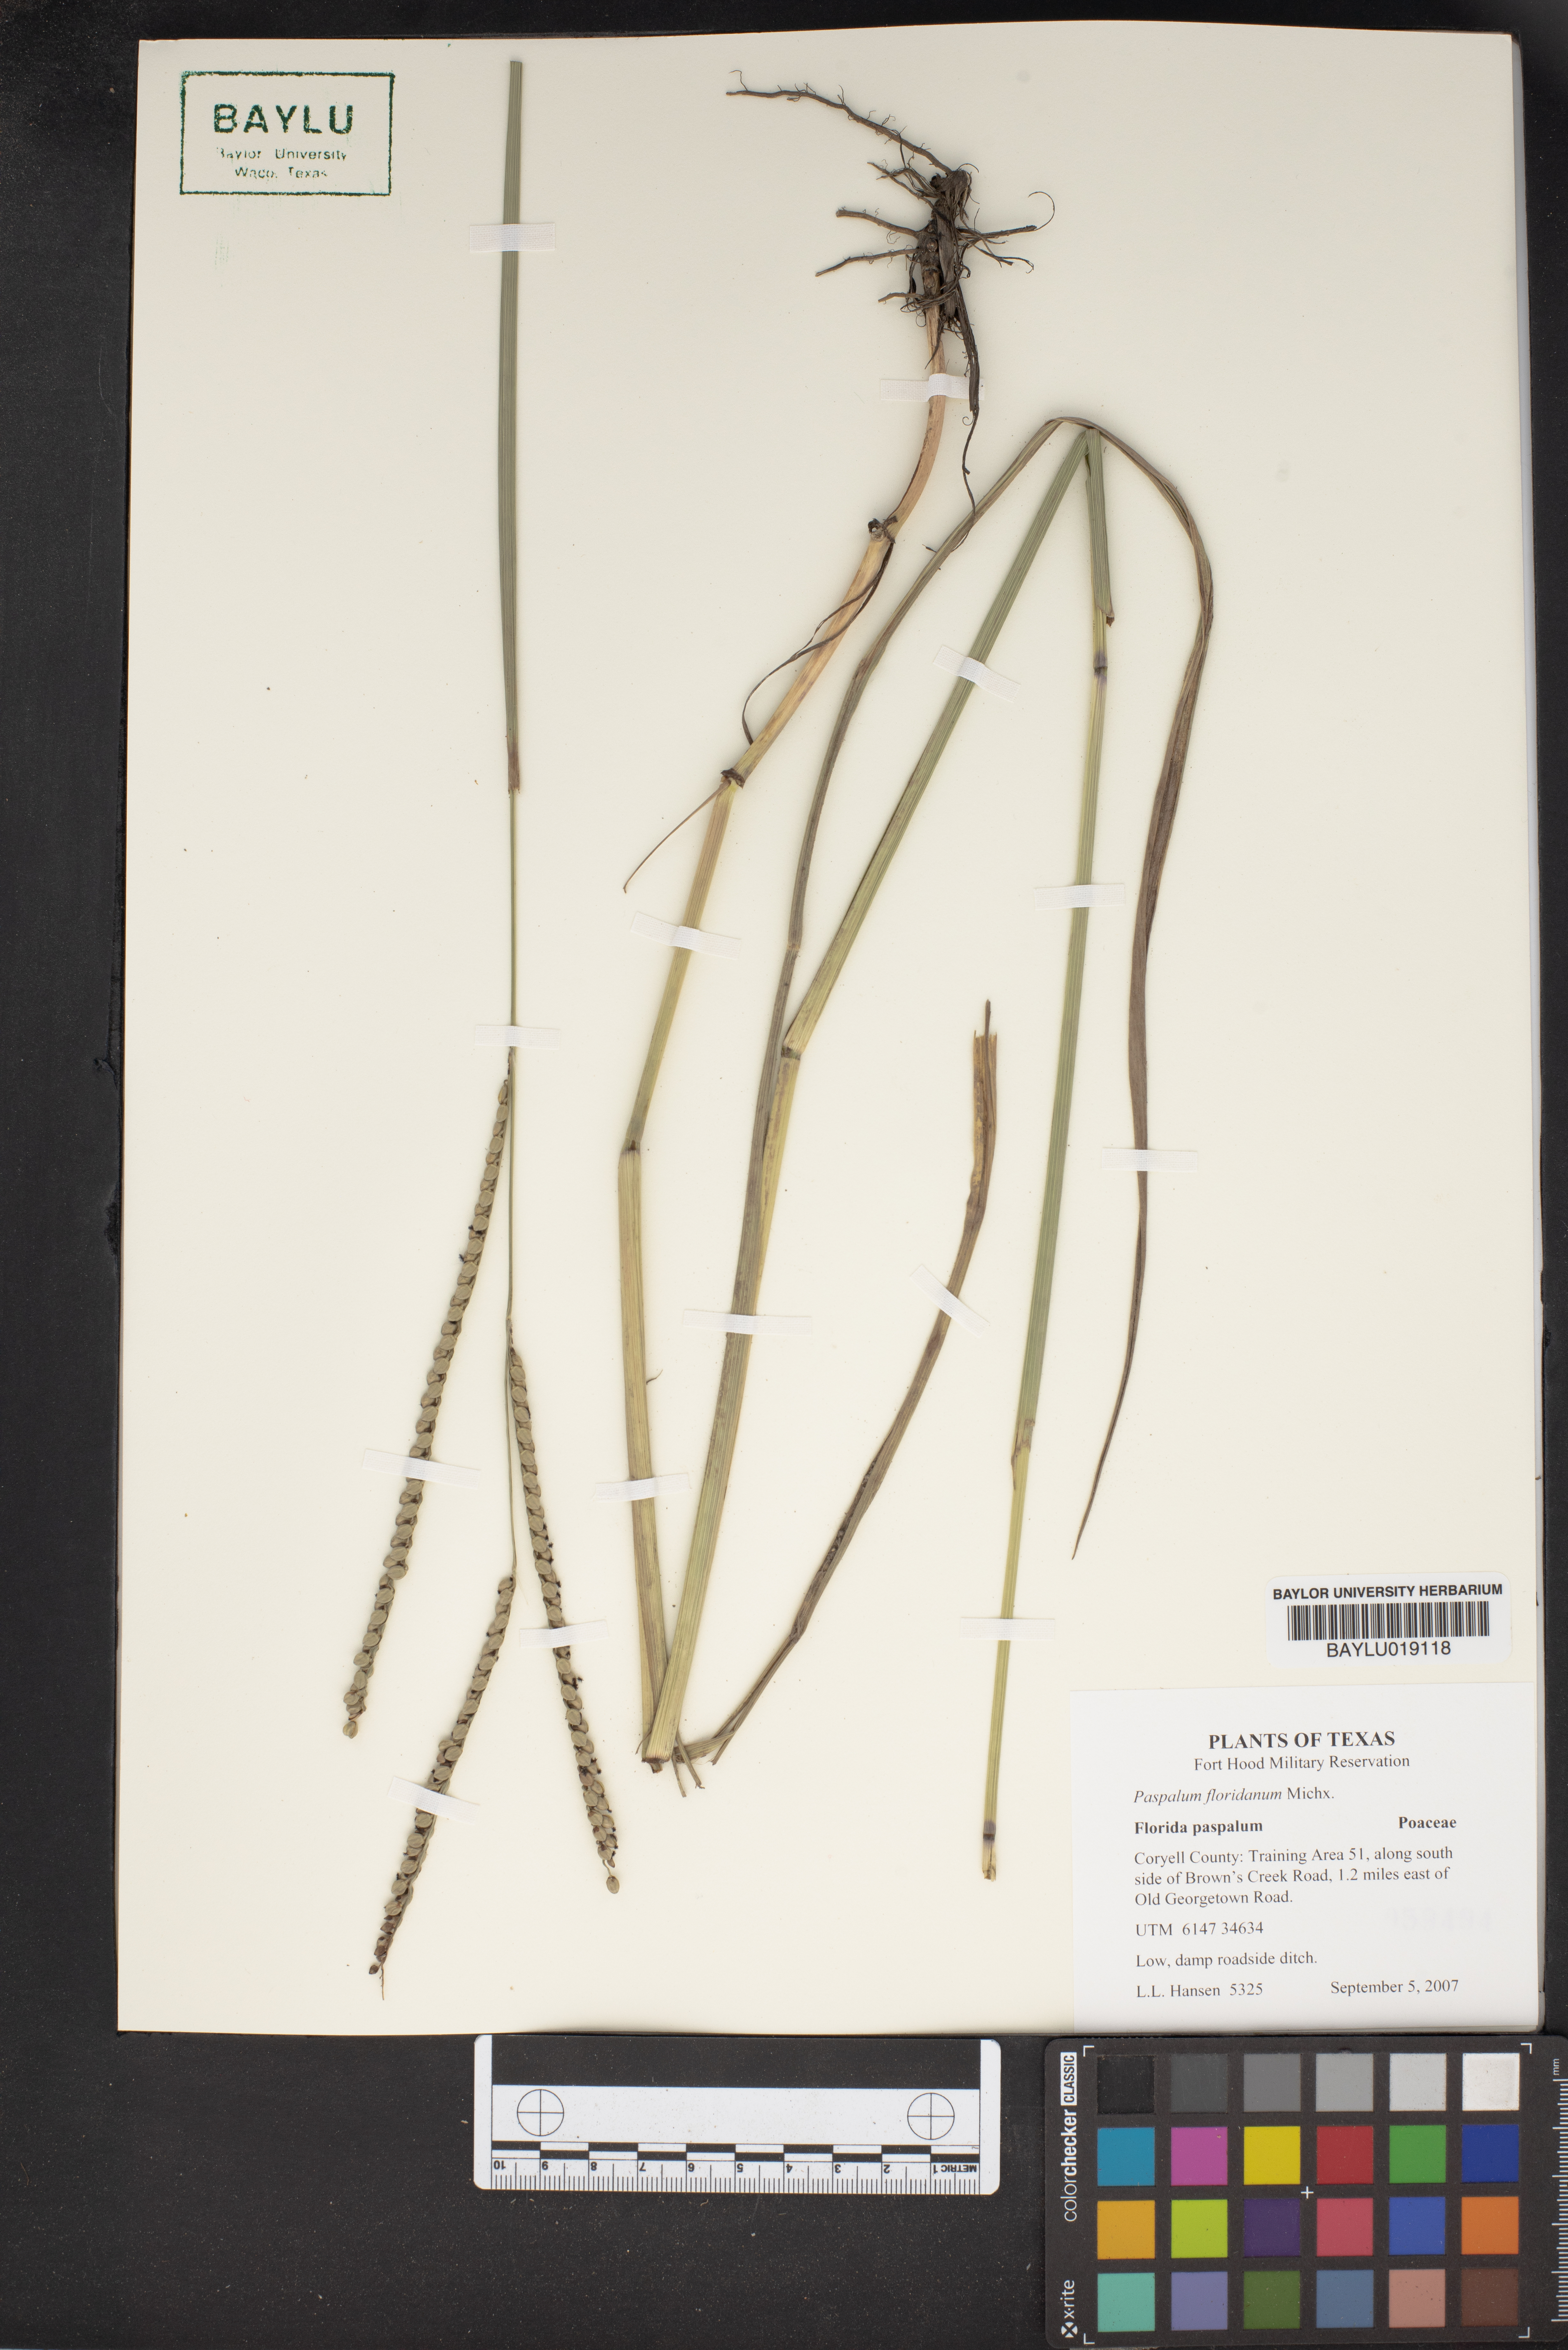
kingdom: Plantae
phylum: Tracheophyta
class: Liliopsida
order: Poales
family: Poaceae
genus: Paspalum
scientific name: Paspalum laxum
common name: Coconut paspalum
